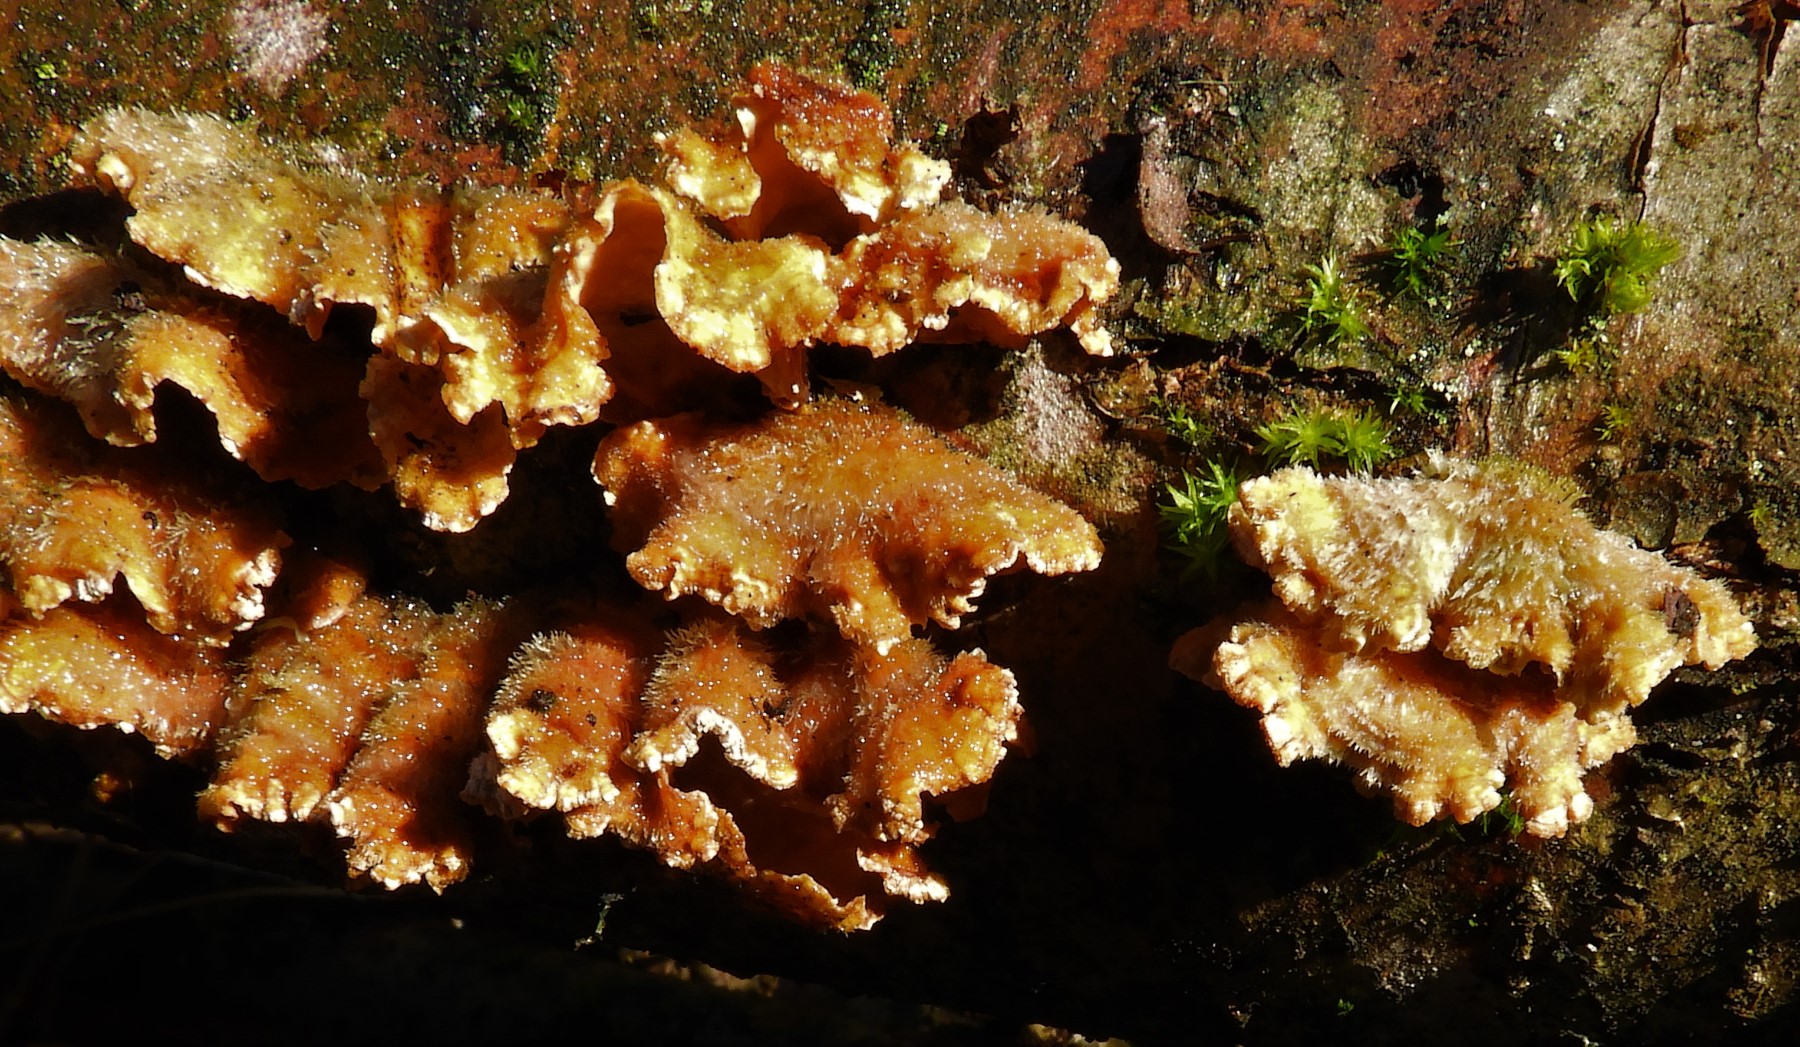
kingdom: Fungi
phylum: Basidiomycota
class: Agaricomycetes
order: Russulales
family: Stereaceae
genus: Stereum
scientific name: Stereum hirsutum
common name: håret lædersvamp
